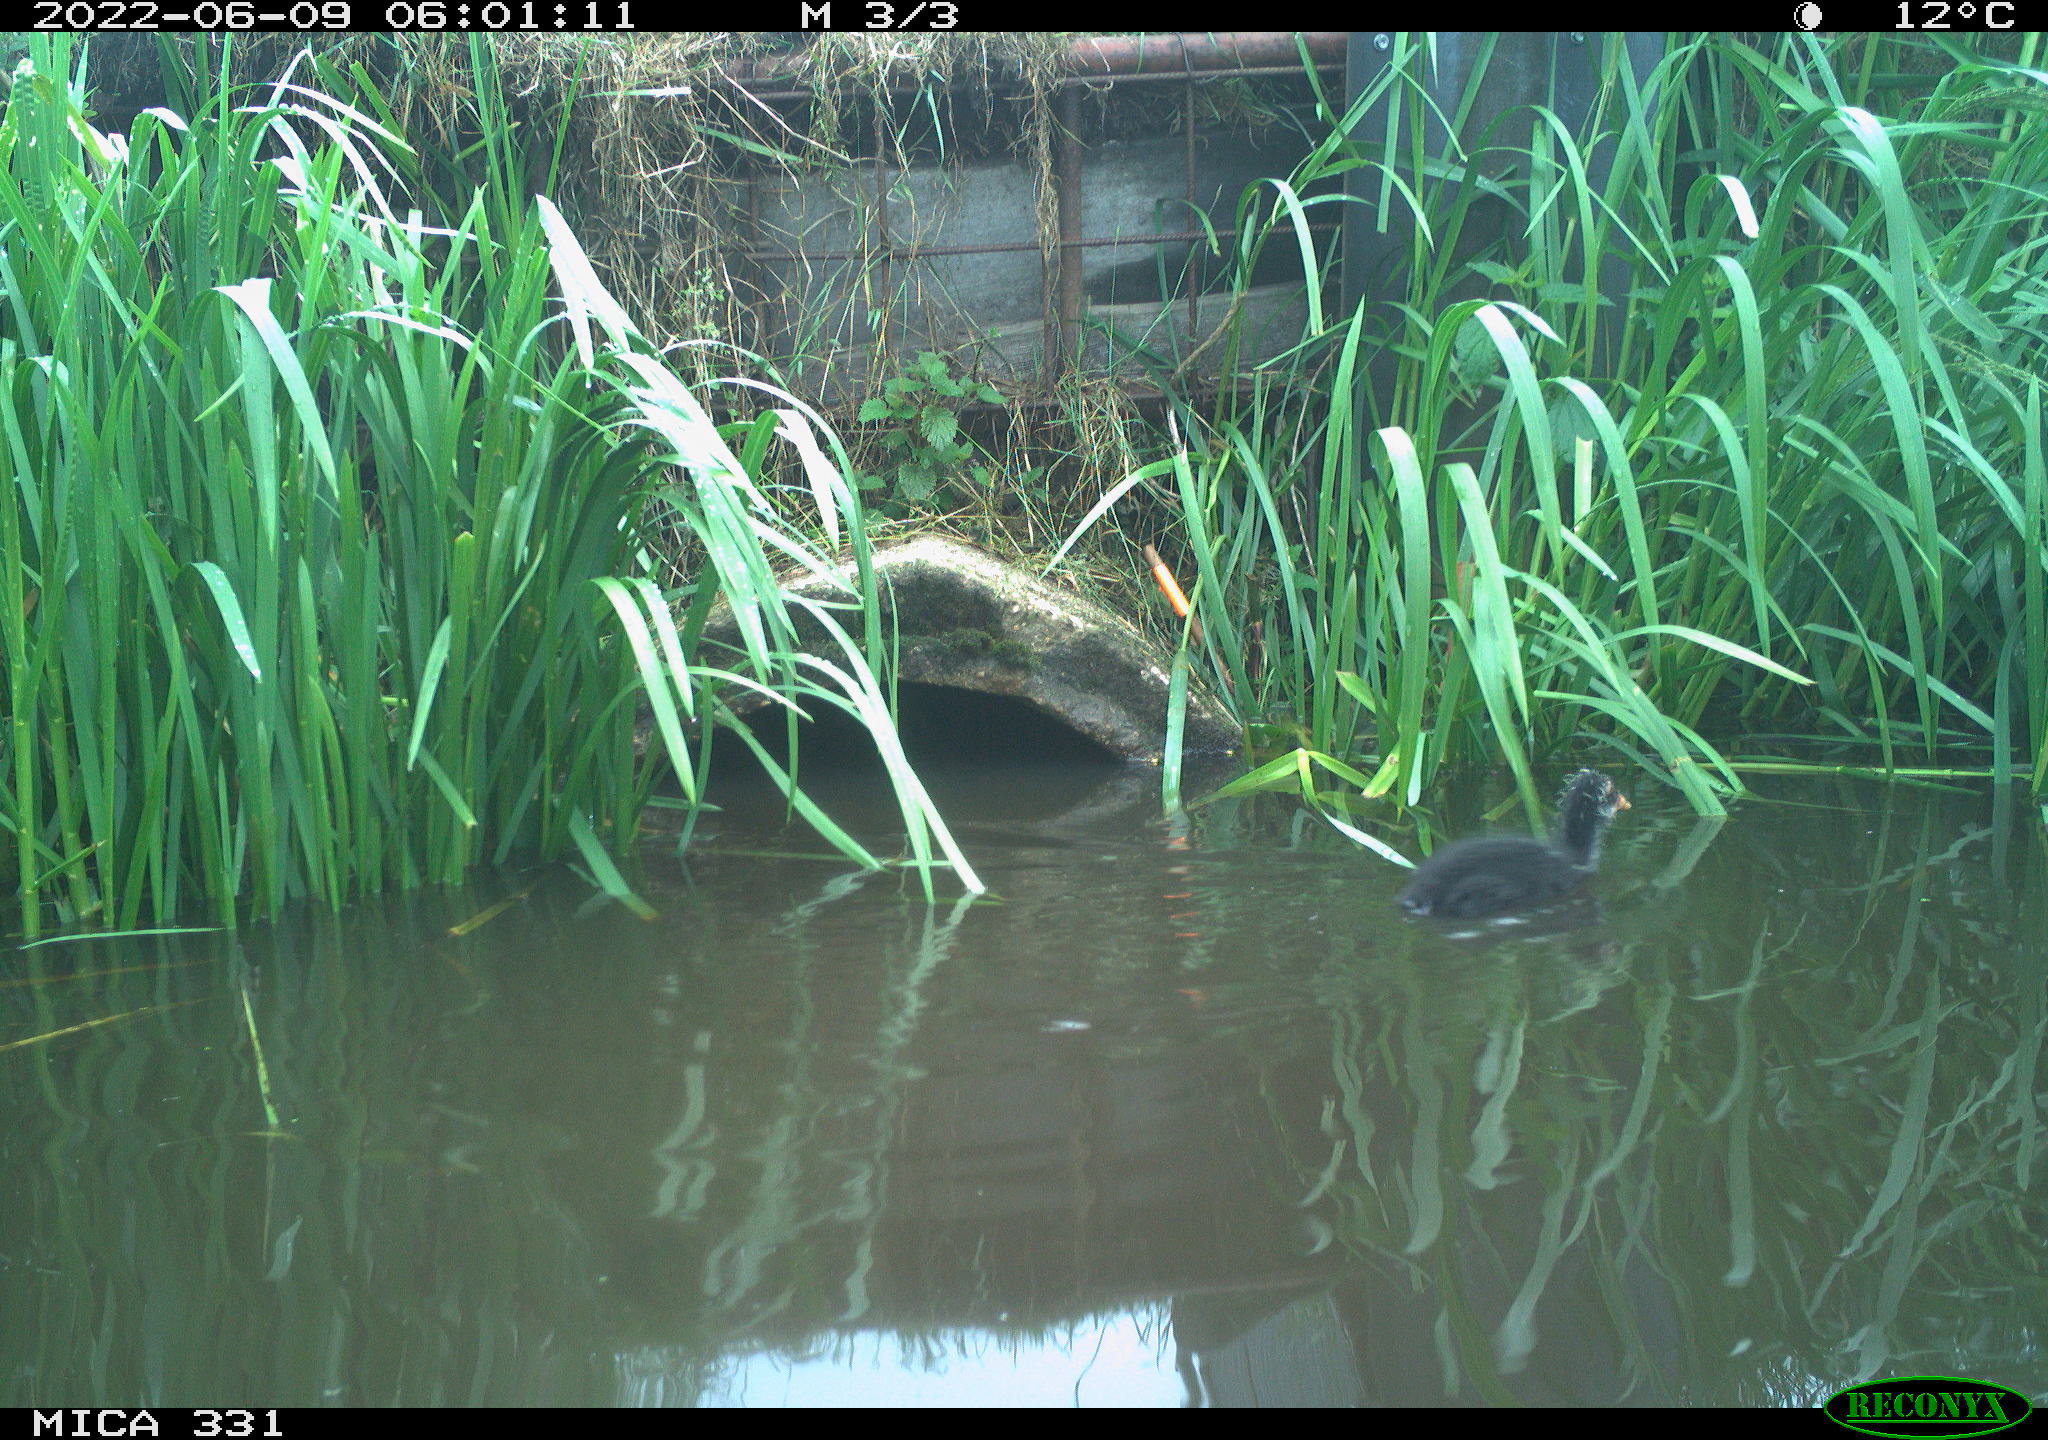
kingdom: Animalia
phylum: Chordata
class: Aves
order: Gruiformes
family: Rallidae
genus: Gallinula
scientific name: Gallinula chloropus
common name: Common moorhen
